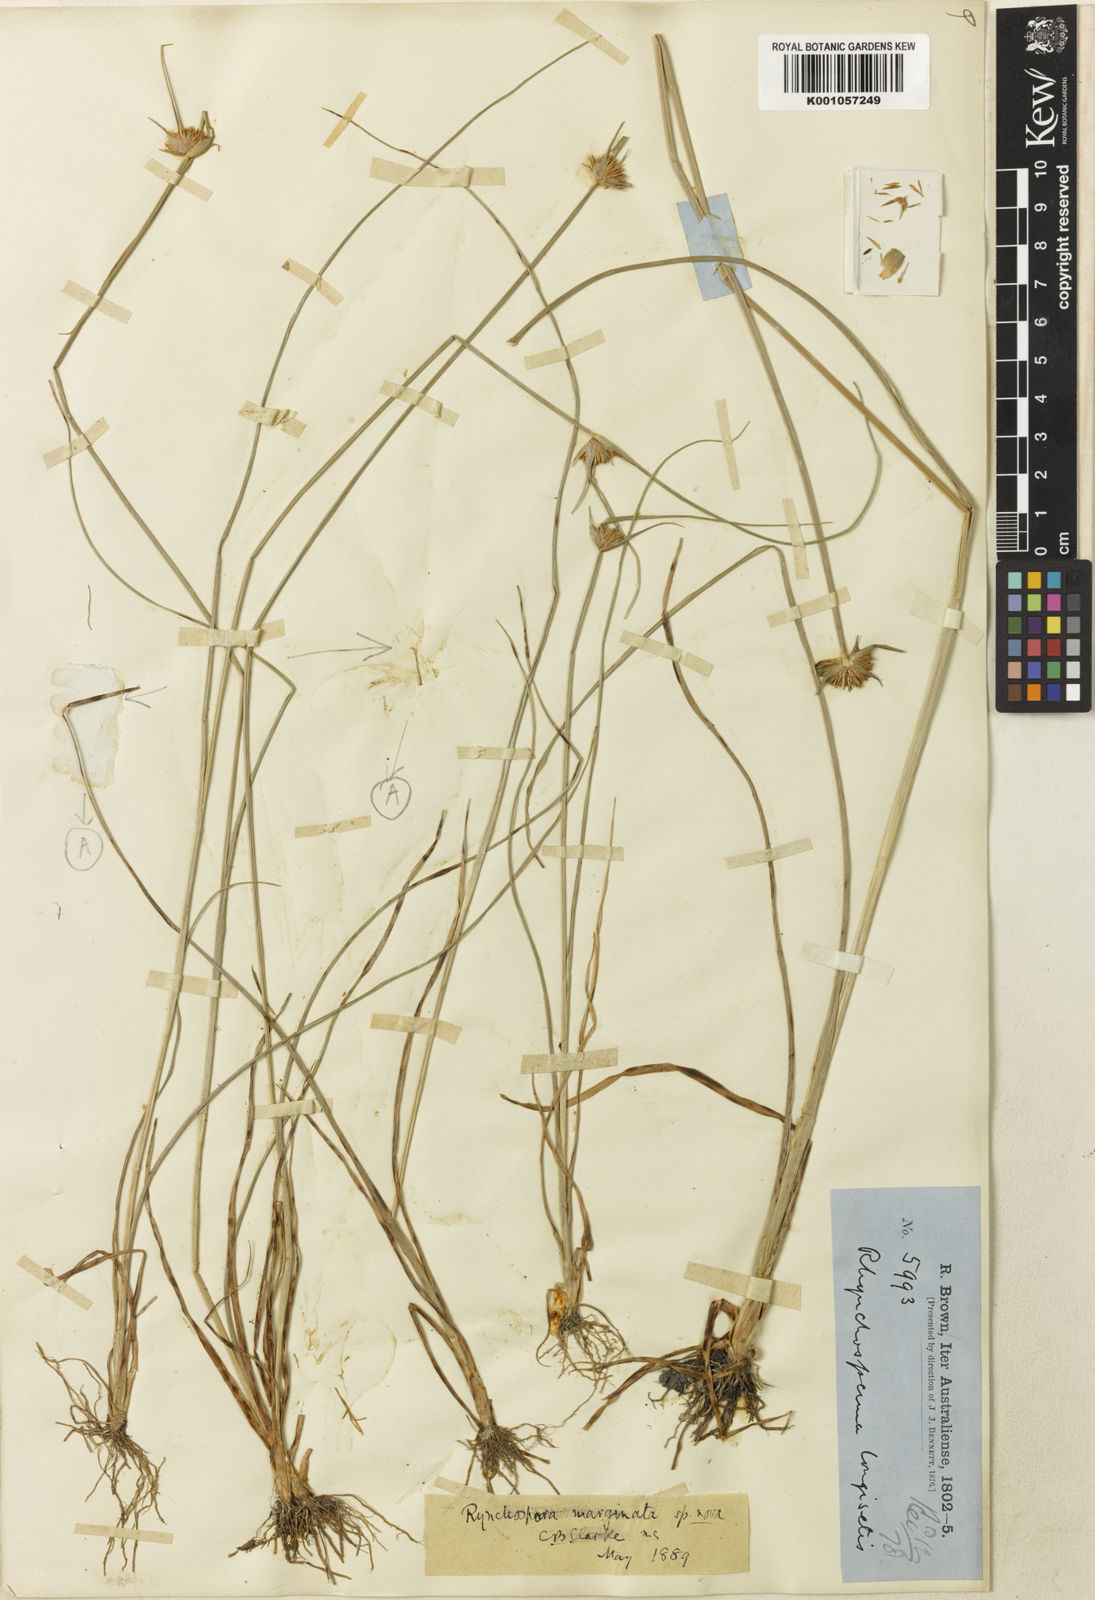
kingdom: Plantae
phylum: Tracheophyta
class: Liliopsida
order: Poales
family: Cyperaceae
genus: Rhynchospora
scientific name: Rhynchospora submarginata
